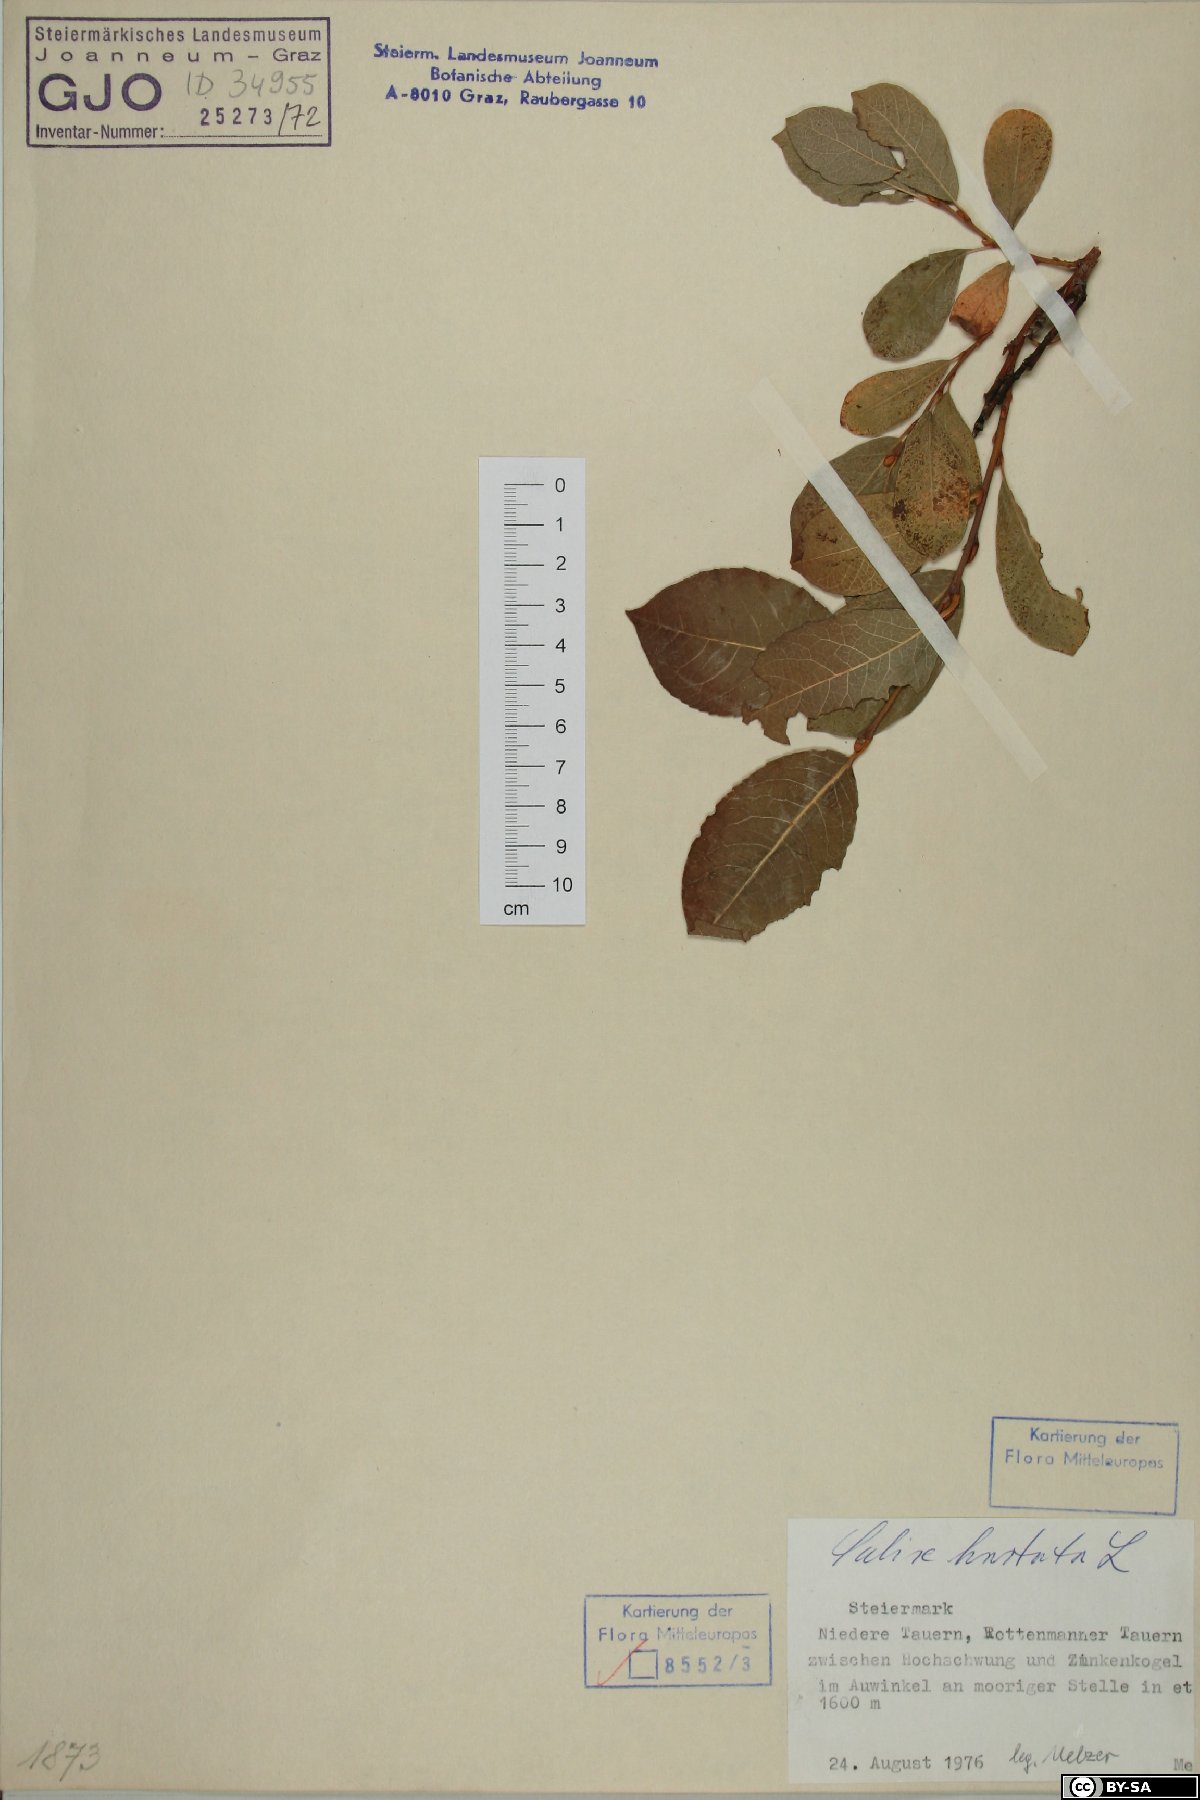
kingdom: Plantae
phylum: Tracheophyta
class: Magnoliopsida
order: Malpighiales
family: Salicaceae
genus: Salix
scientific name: Salix hastata
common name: Halberd willow
